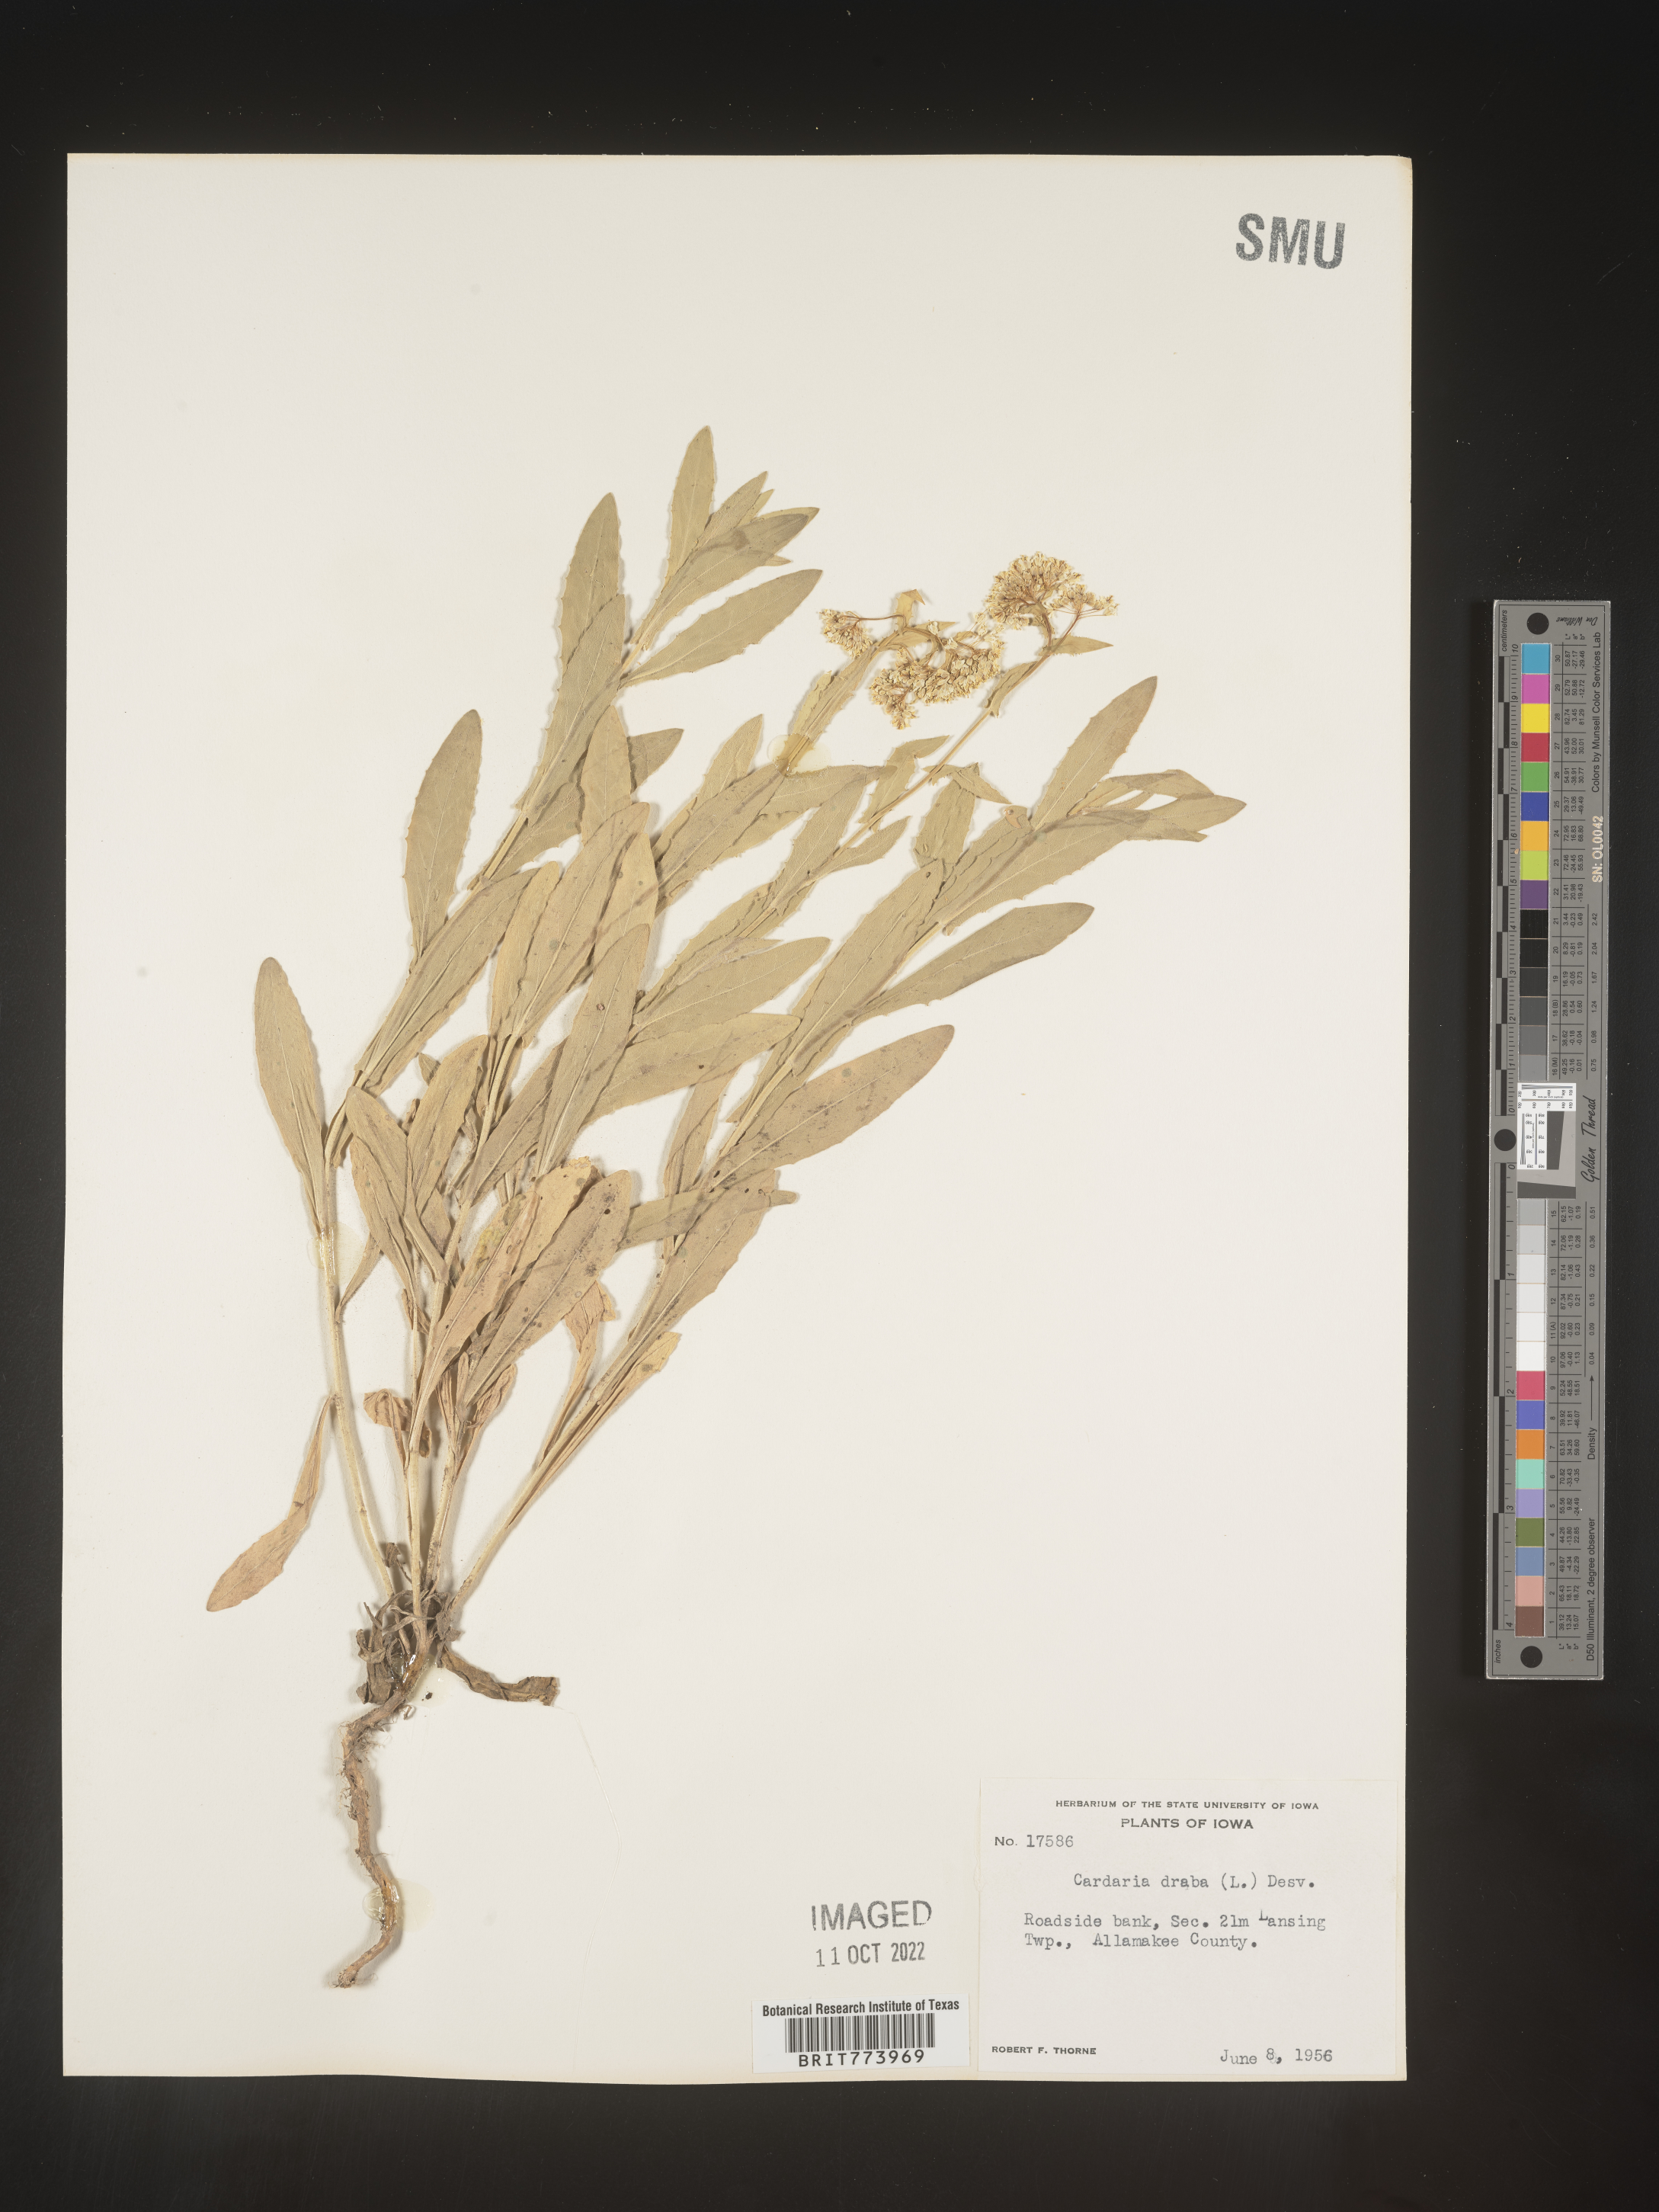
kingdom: Plantae
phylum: Tracheophyta
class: Magnoliopsida
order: Brassicales
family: Brassicaceae
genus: Lepidium
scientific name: Lepidium draba
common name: Hoary cress
